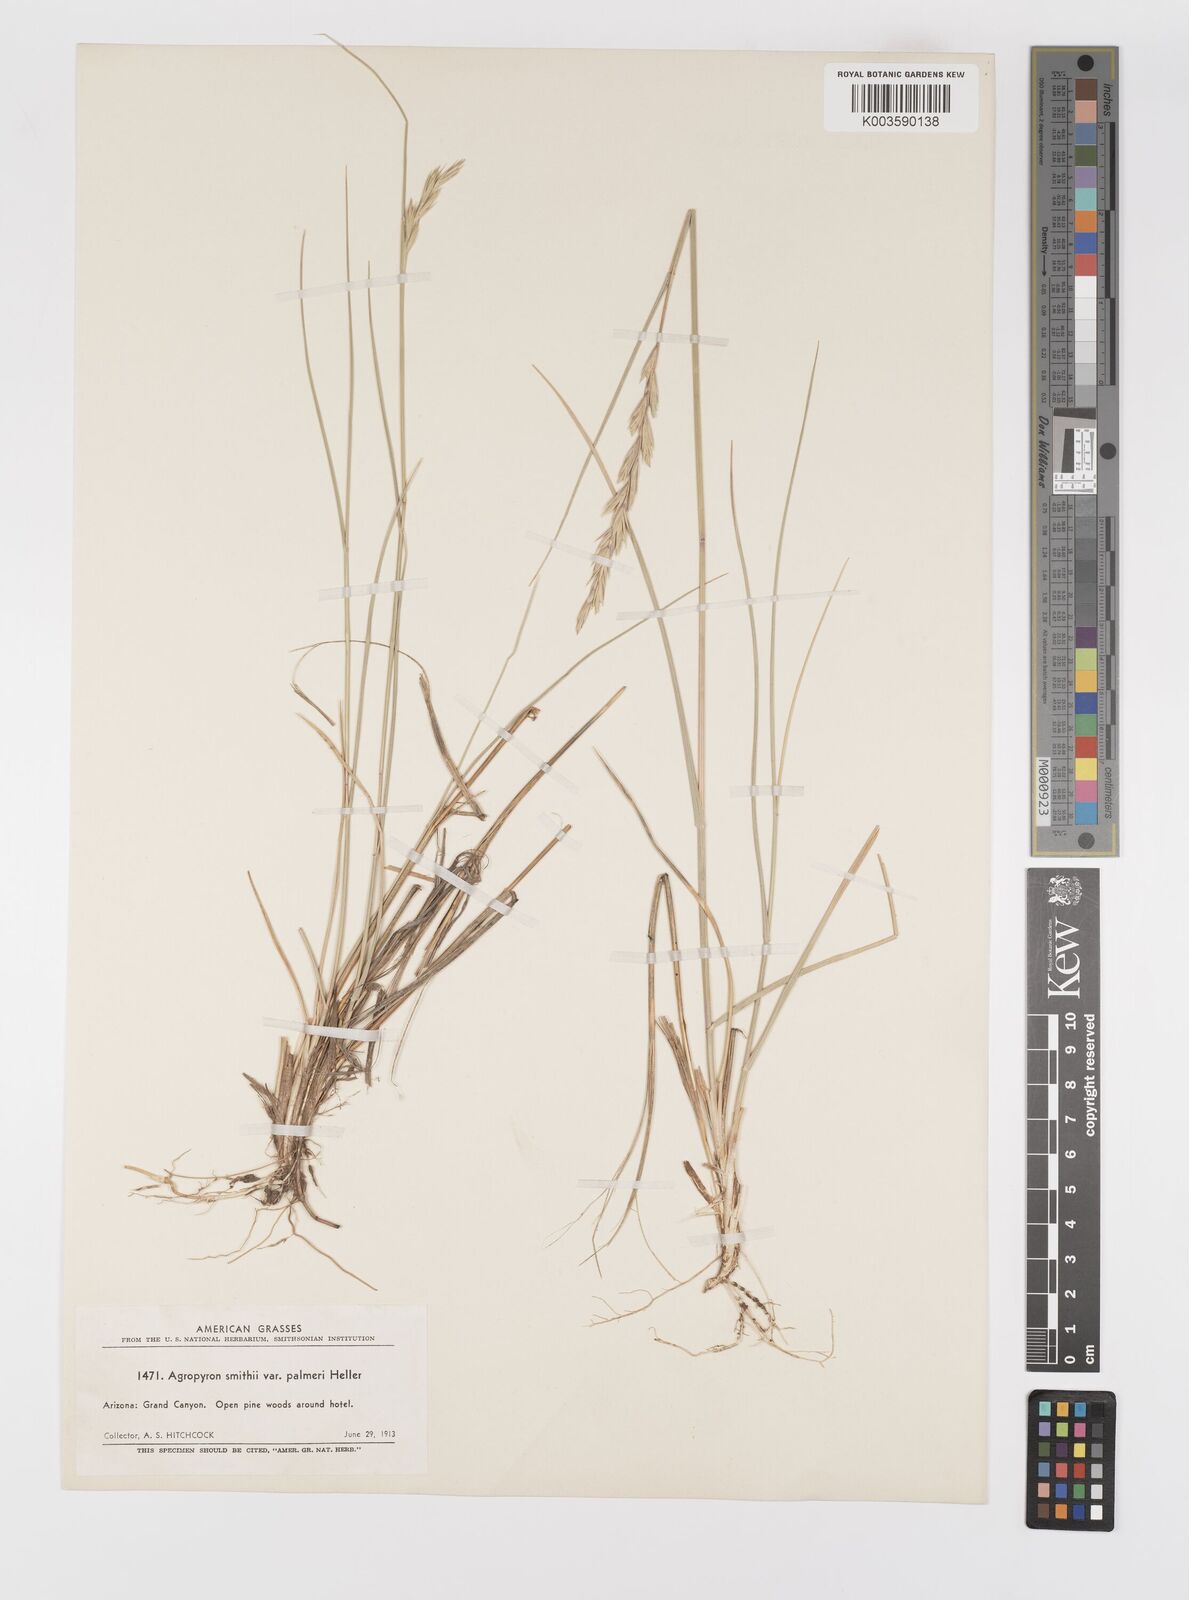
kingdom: Plantae
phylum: Tracheophyta
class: Liliopsida
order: Poales
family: Poaceae
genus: Elymus
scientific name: Elymus smithii
